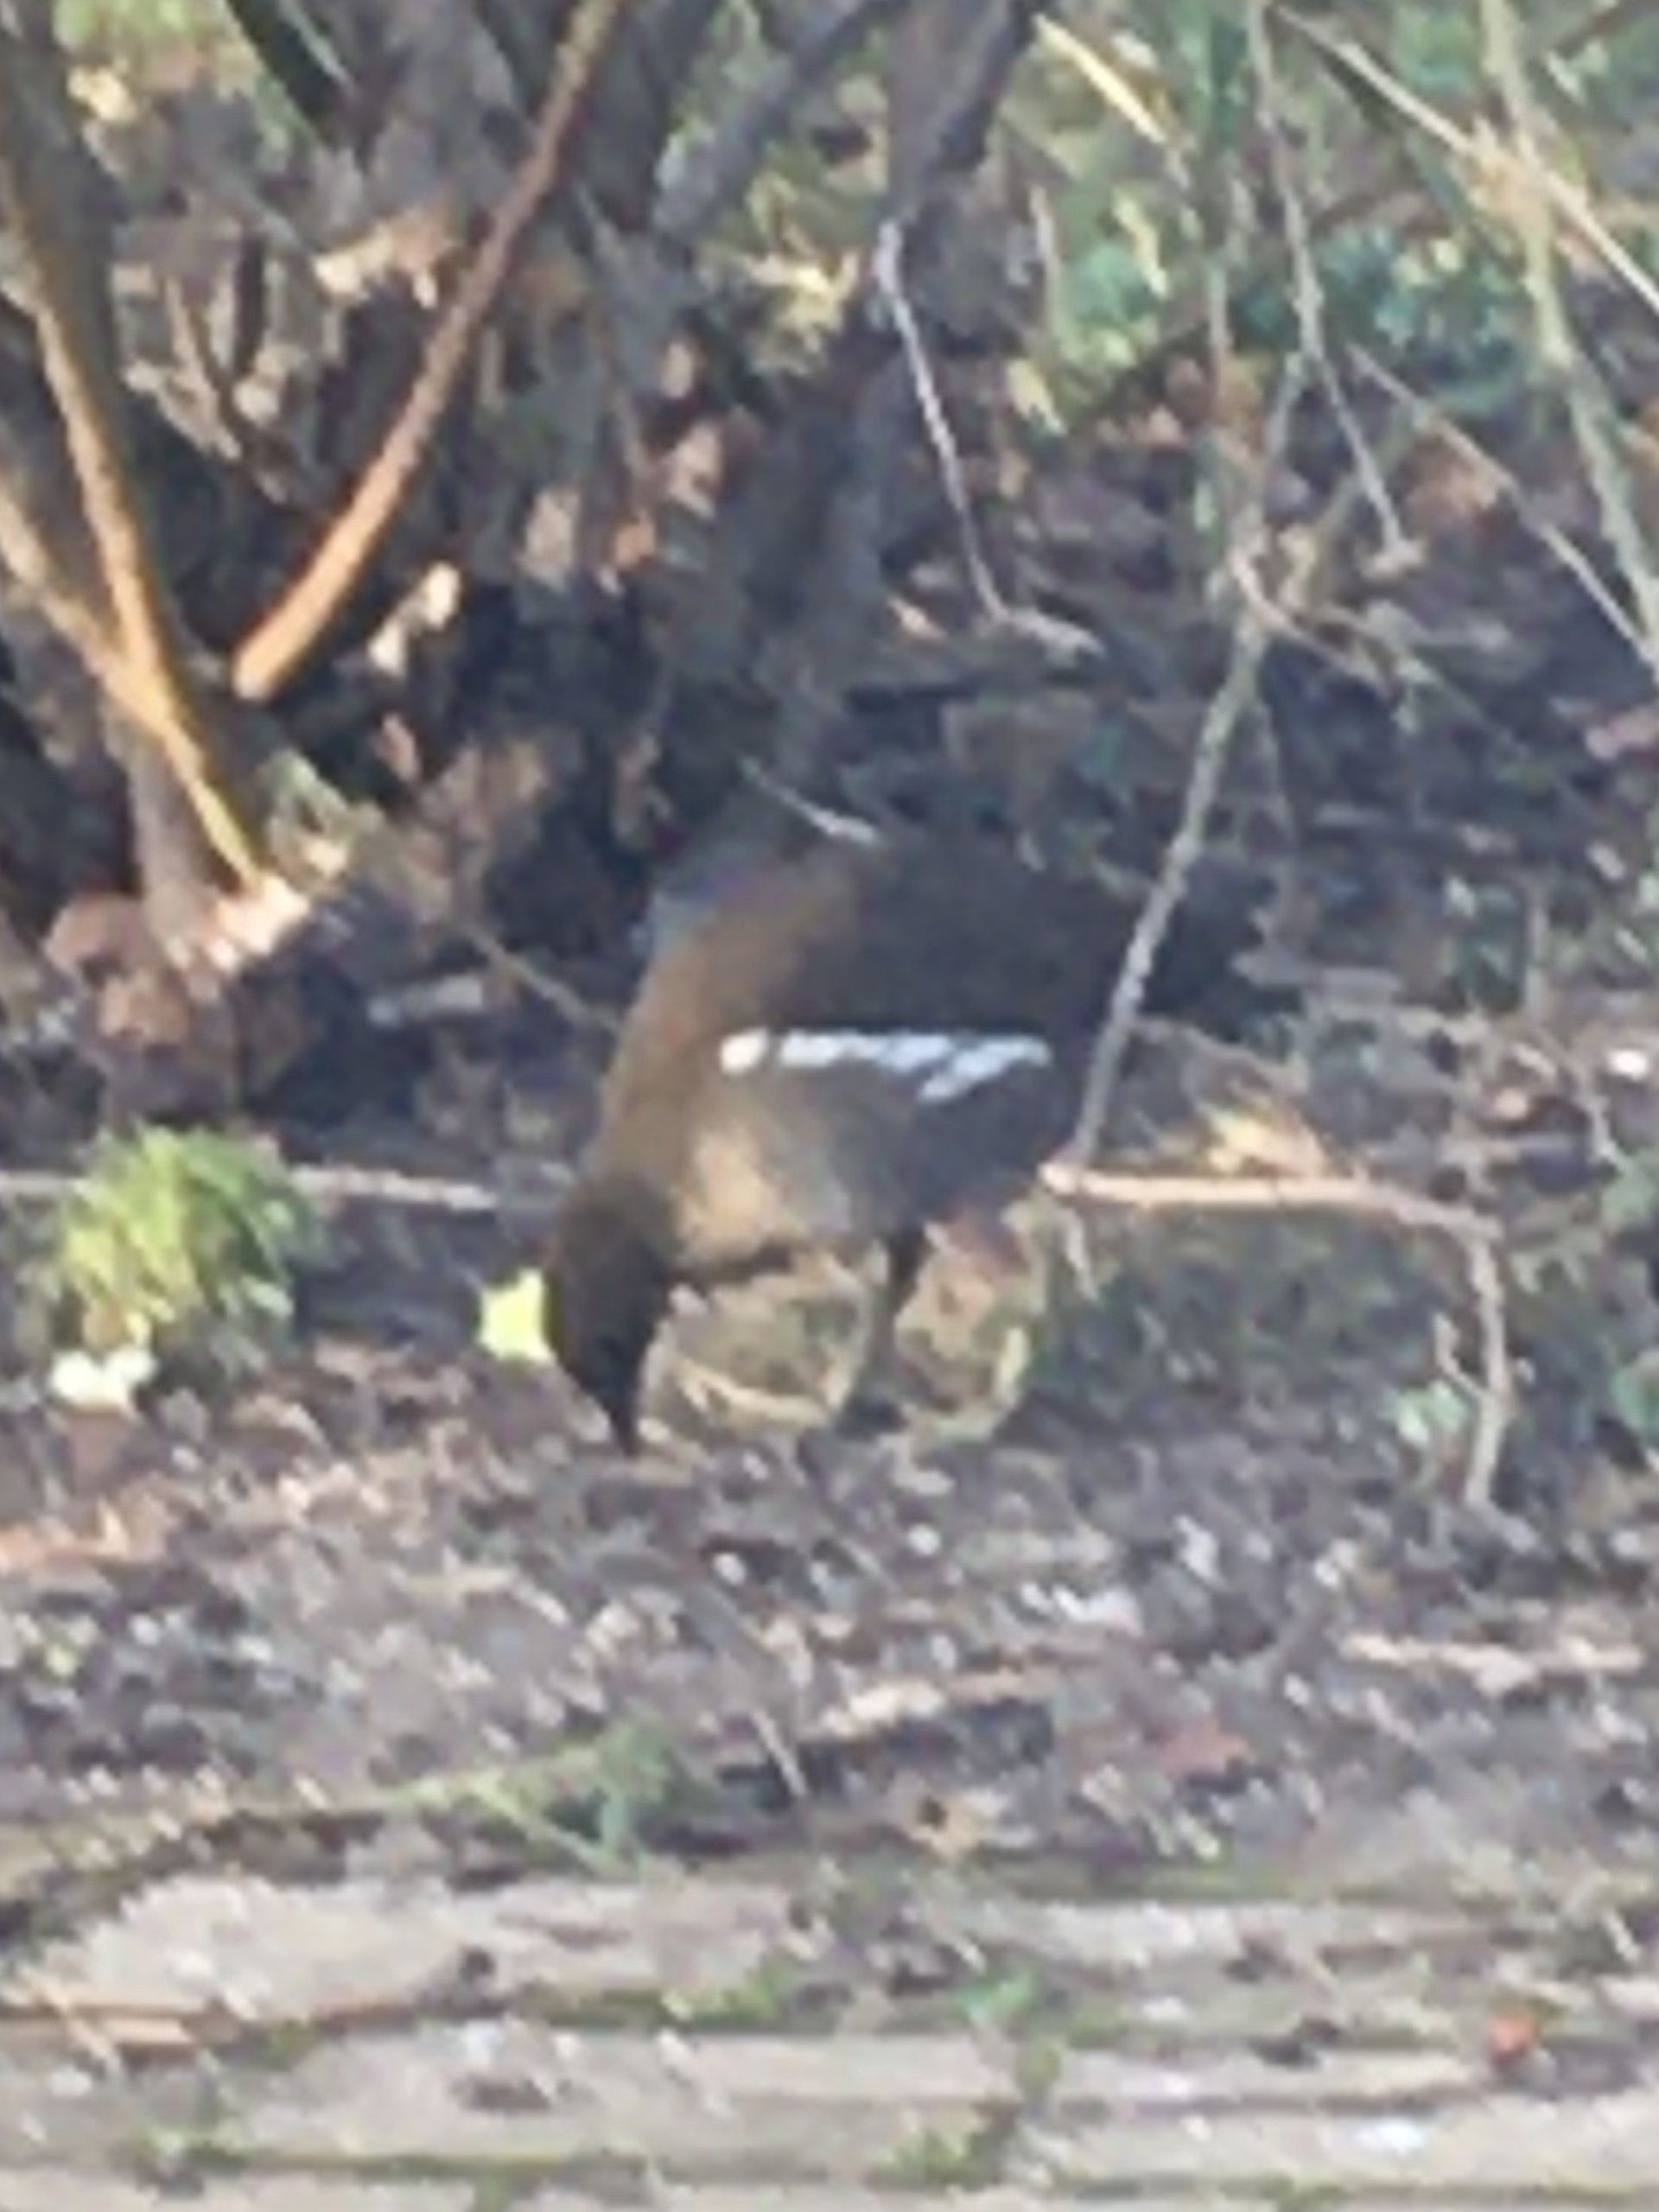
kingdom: Animalia
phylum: Chordata
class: Aves
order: Gruiformes
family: Rallidae
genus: Gallinula
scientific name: Gallinula chloropus
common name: Grønbenet rørhøne
